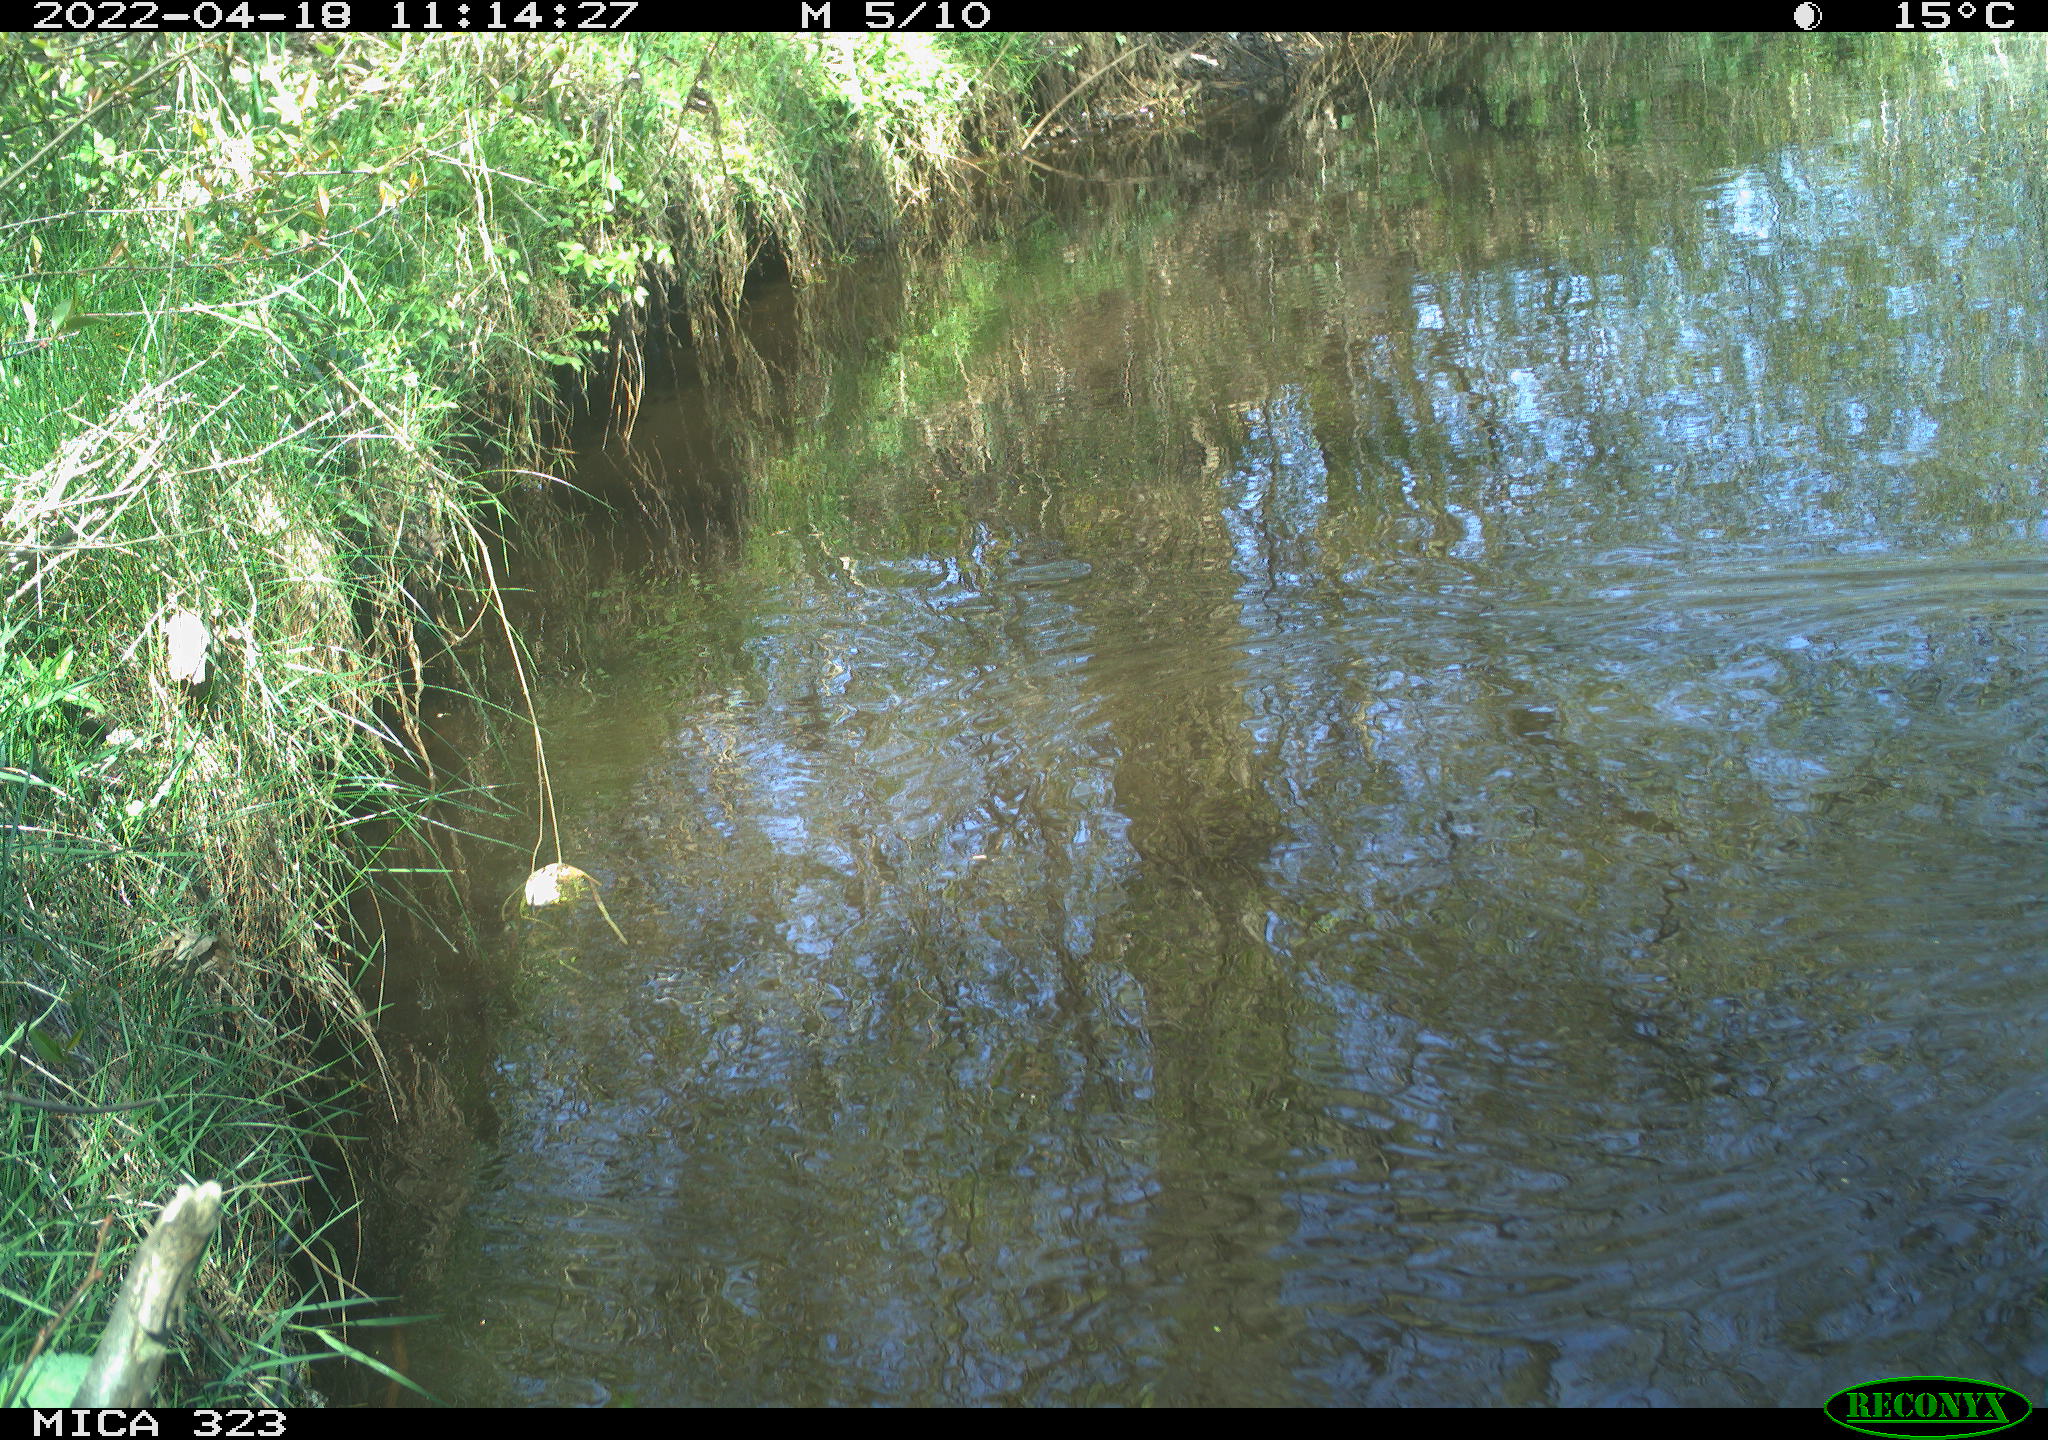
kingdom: Animalia
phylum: Chordata
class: Aves
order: Gruiformes
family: Rallidae
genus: Gallinula
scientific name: Gallinula chloropus
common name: Common moorhen
